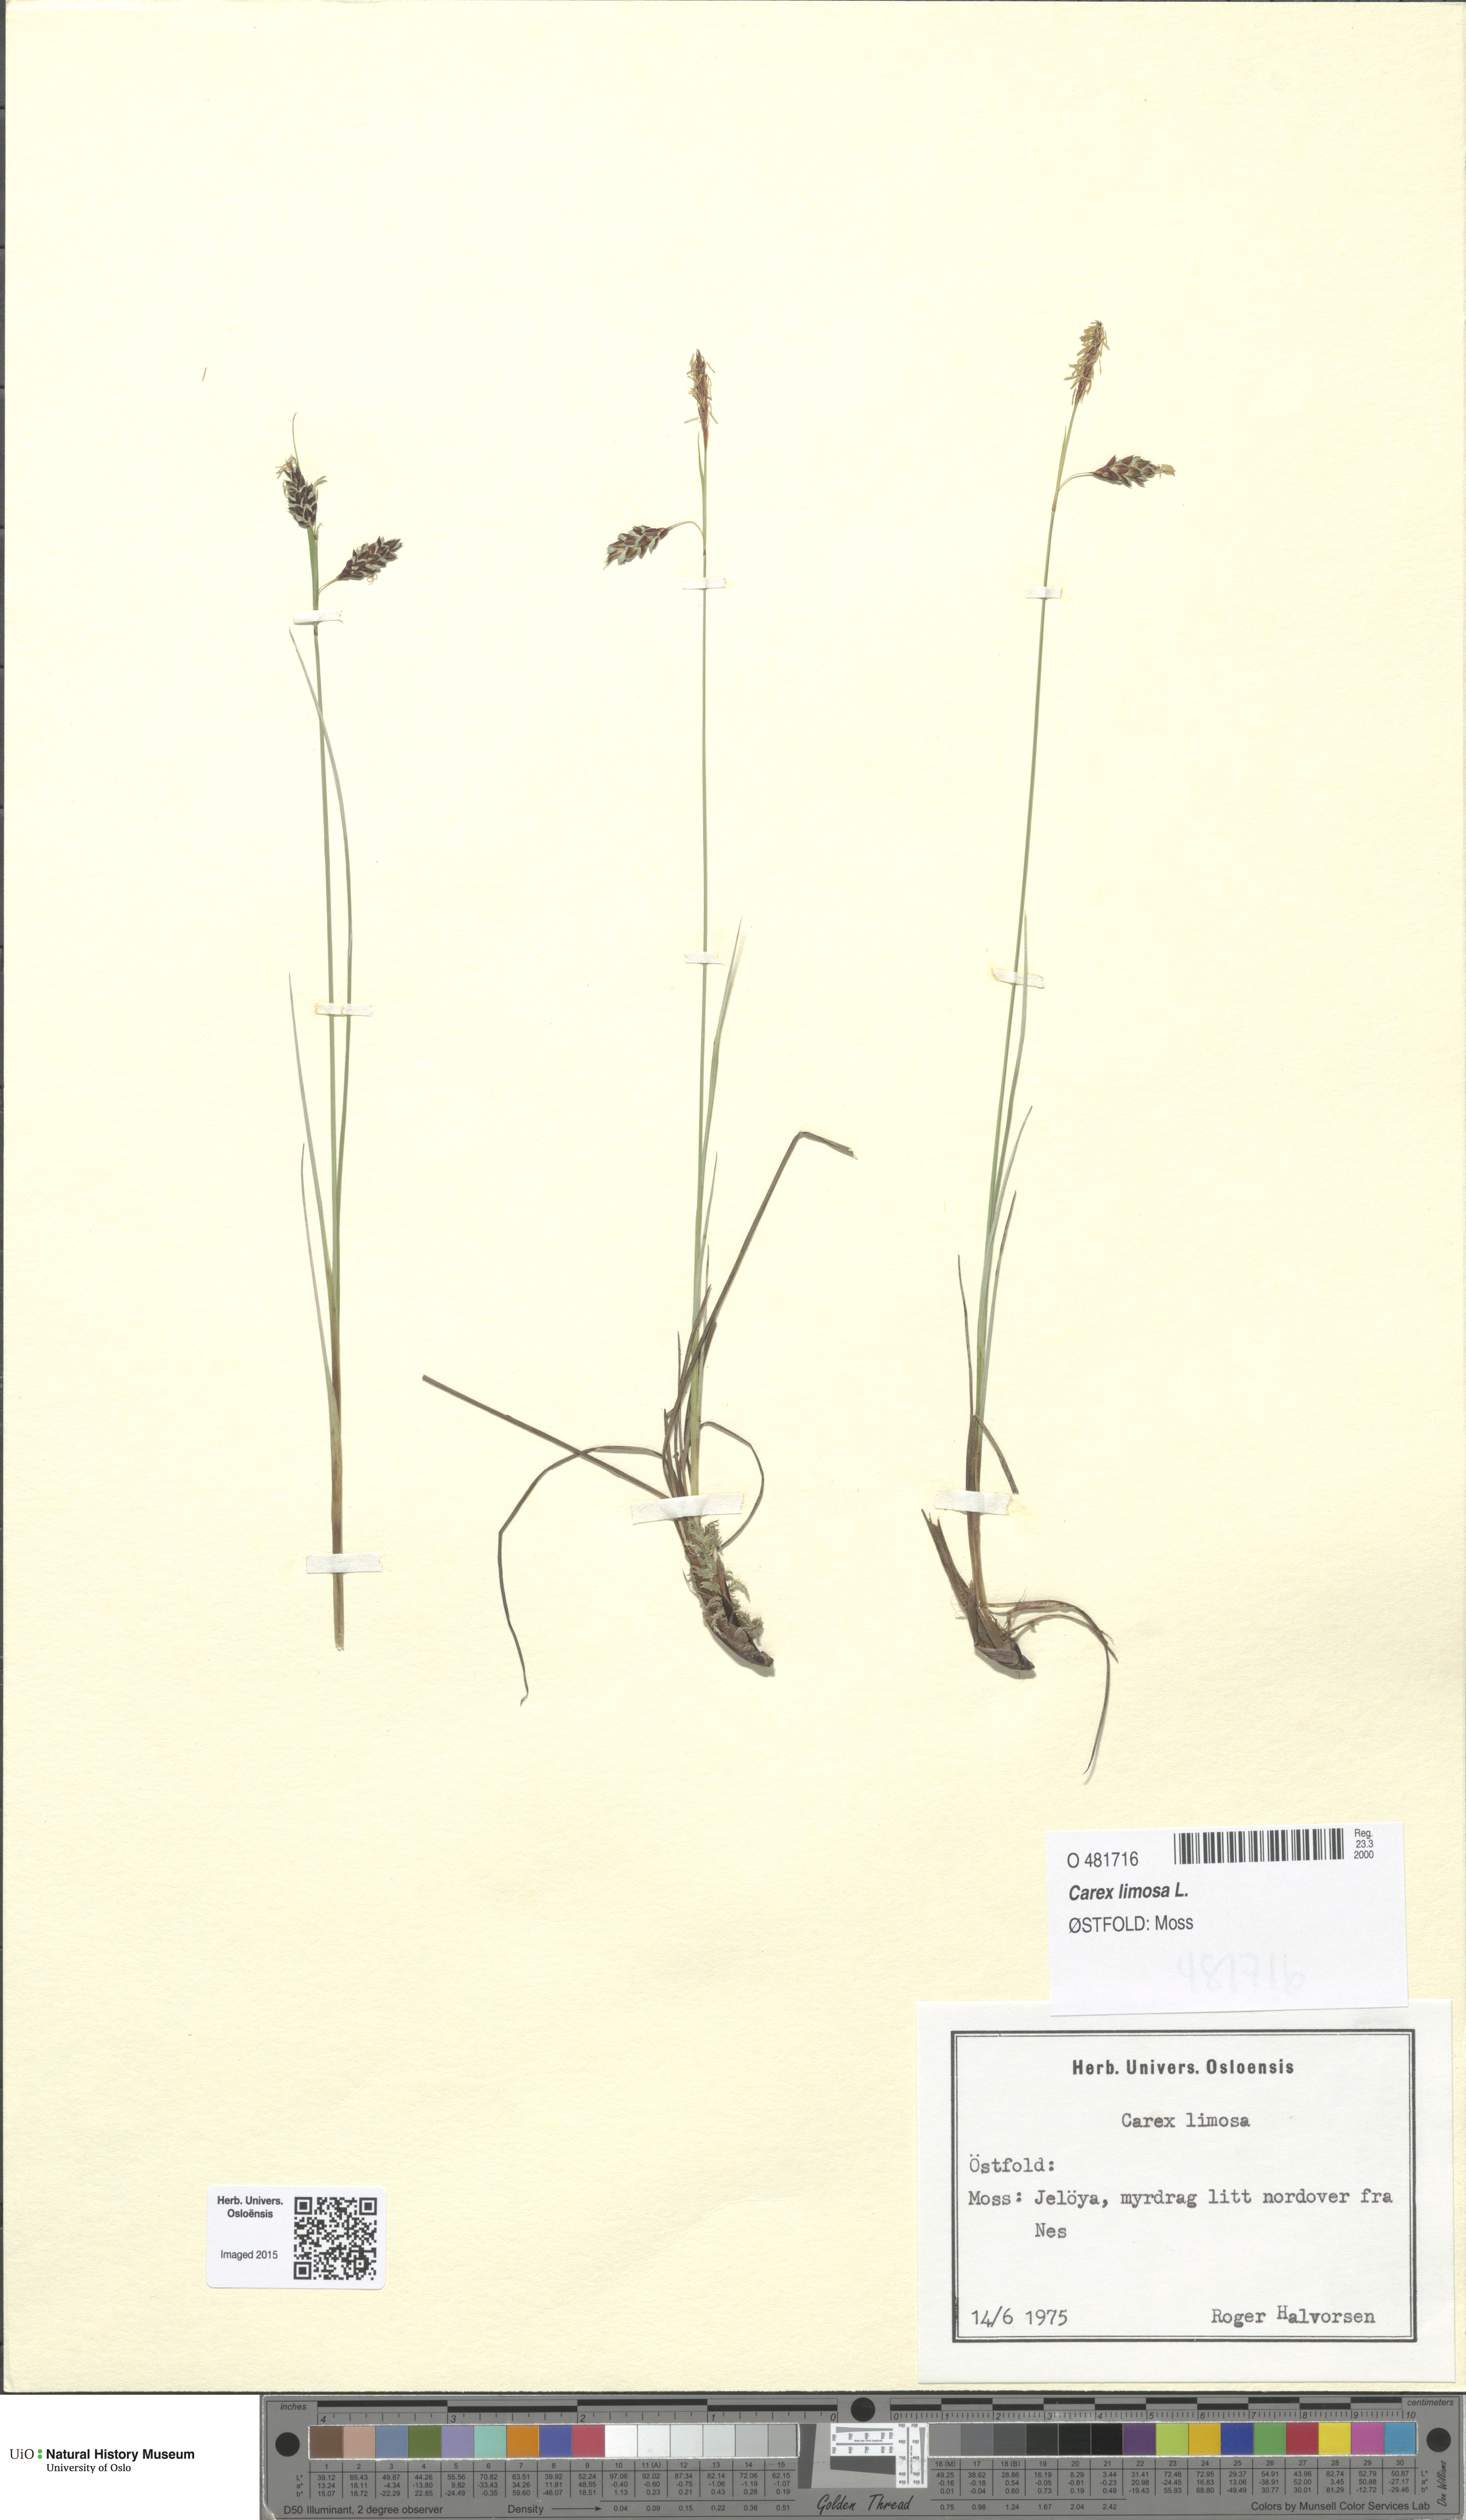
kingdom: Plantae
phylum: Tracheophyta
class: Liliopsida
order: Poales
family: Cyperaceae
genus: Carex
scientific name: Carex limosa
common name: Bog sedge
